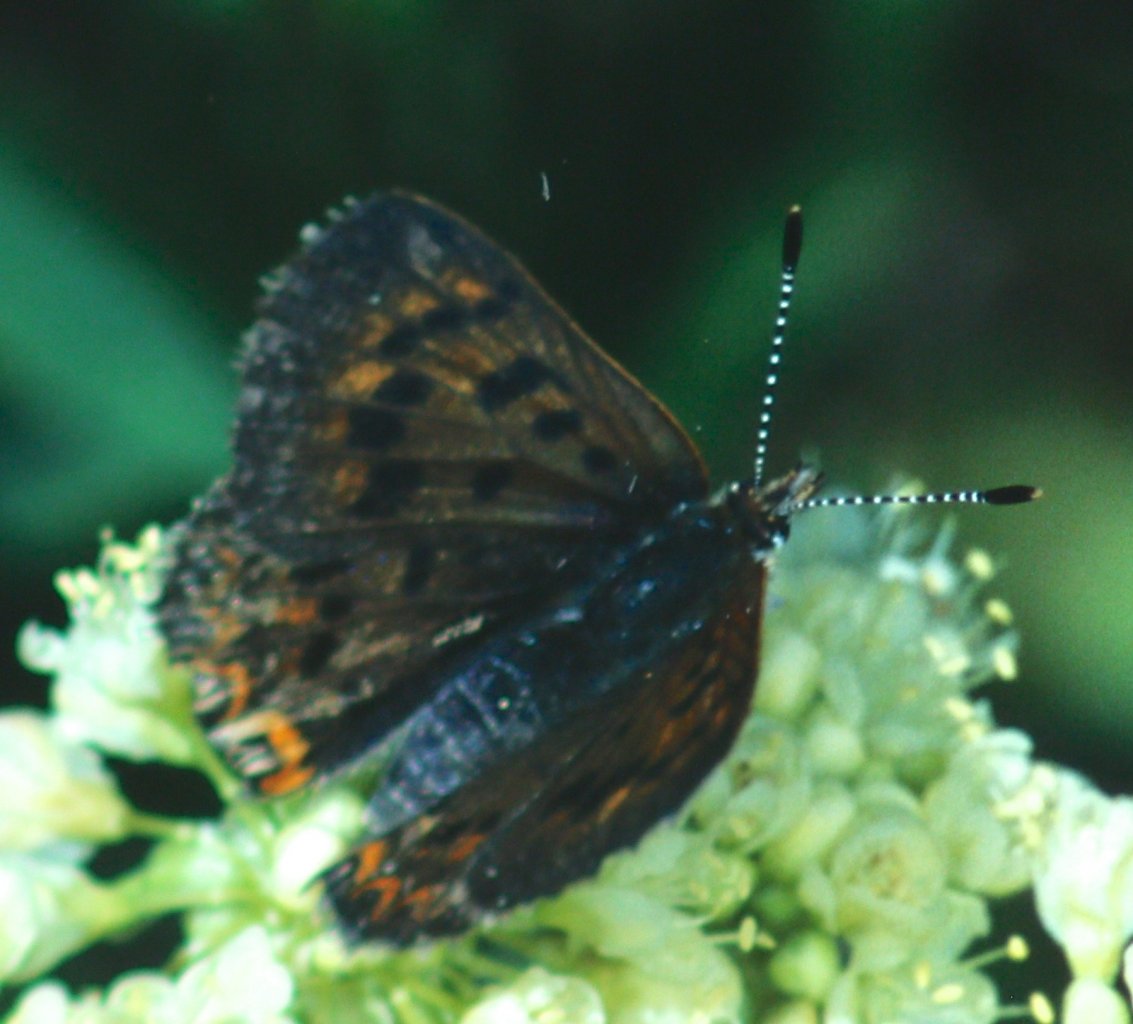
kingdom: Animalia
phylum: Arthropoda
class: Insecta
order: Lepidoptera
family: Sesiidae
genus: Sesia
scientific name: Sesia Lycaena helloides
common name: Purplish Copper
